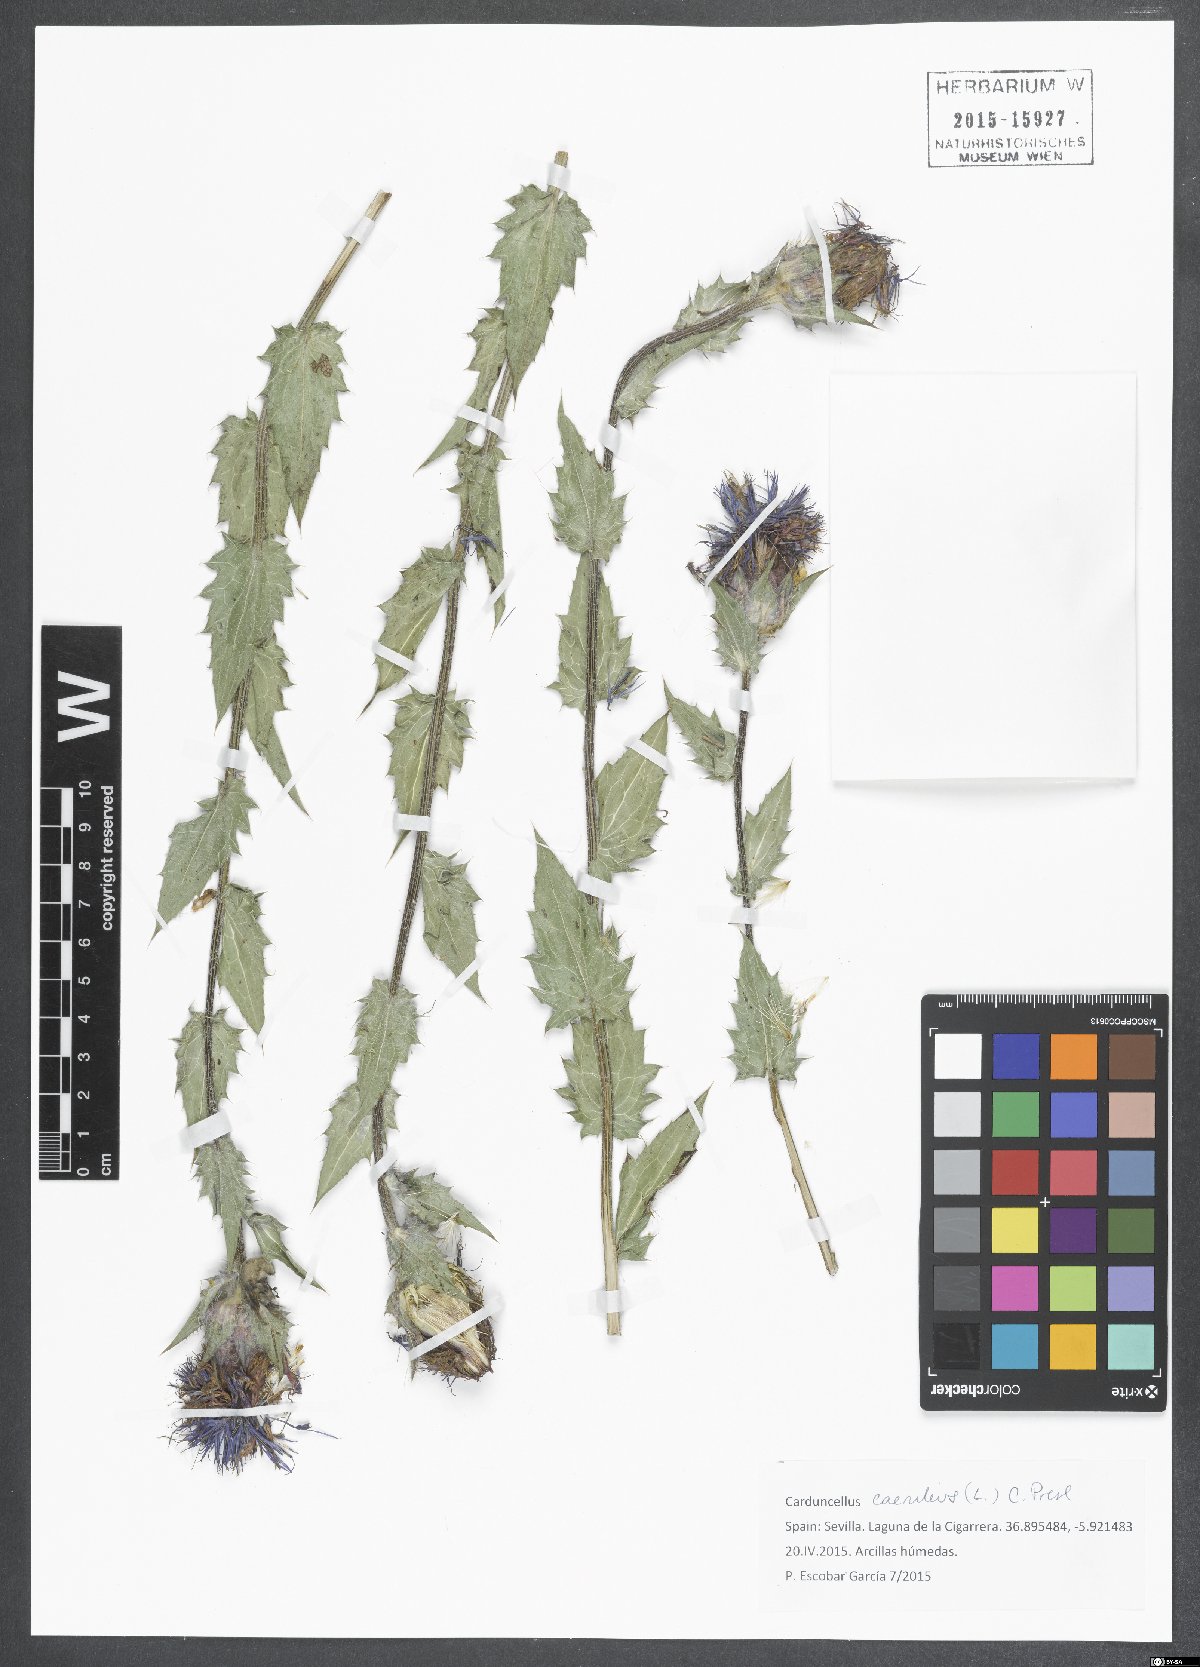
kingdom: Plantae
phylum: Tracheophyta
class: Magnoliopsida
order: Asterales
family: Asteraceae
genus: Carduncellus
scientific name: Carduncellus caeruleus
